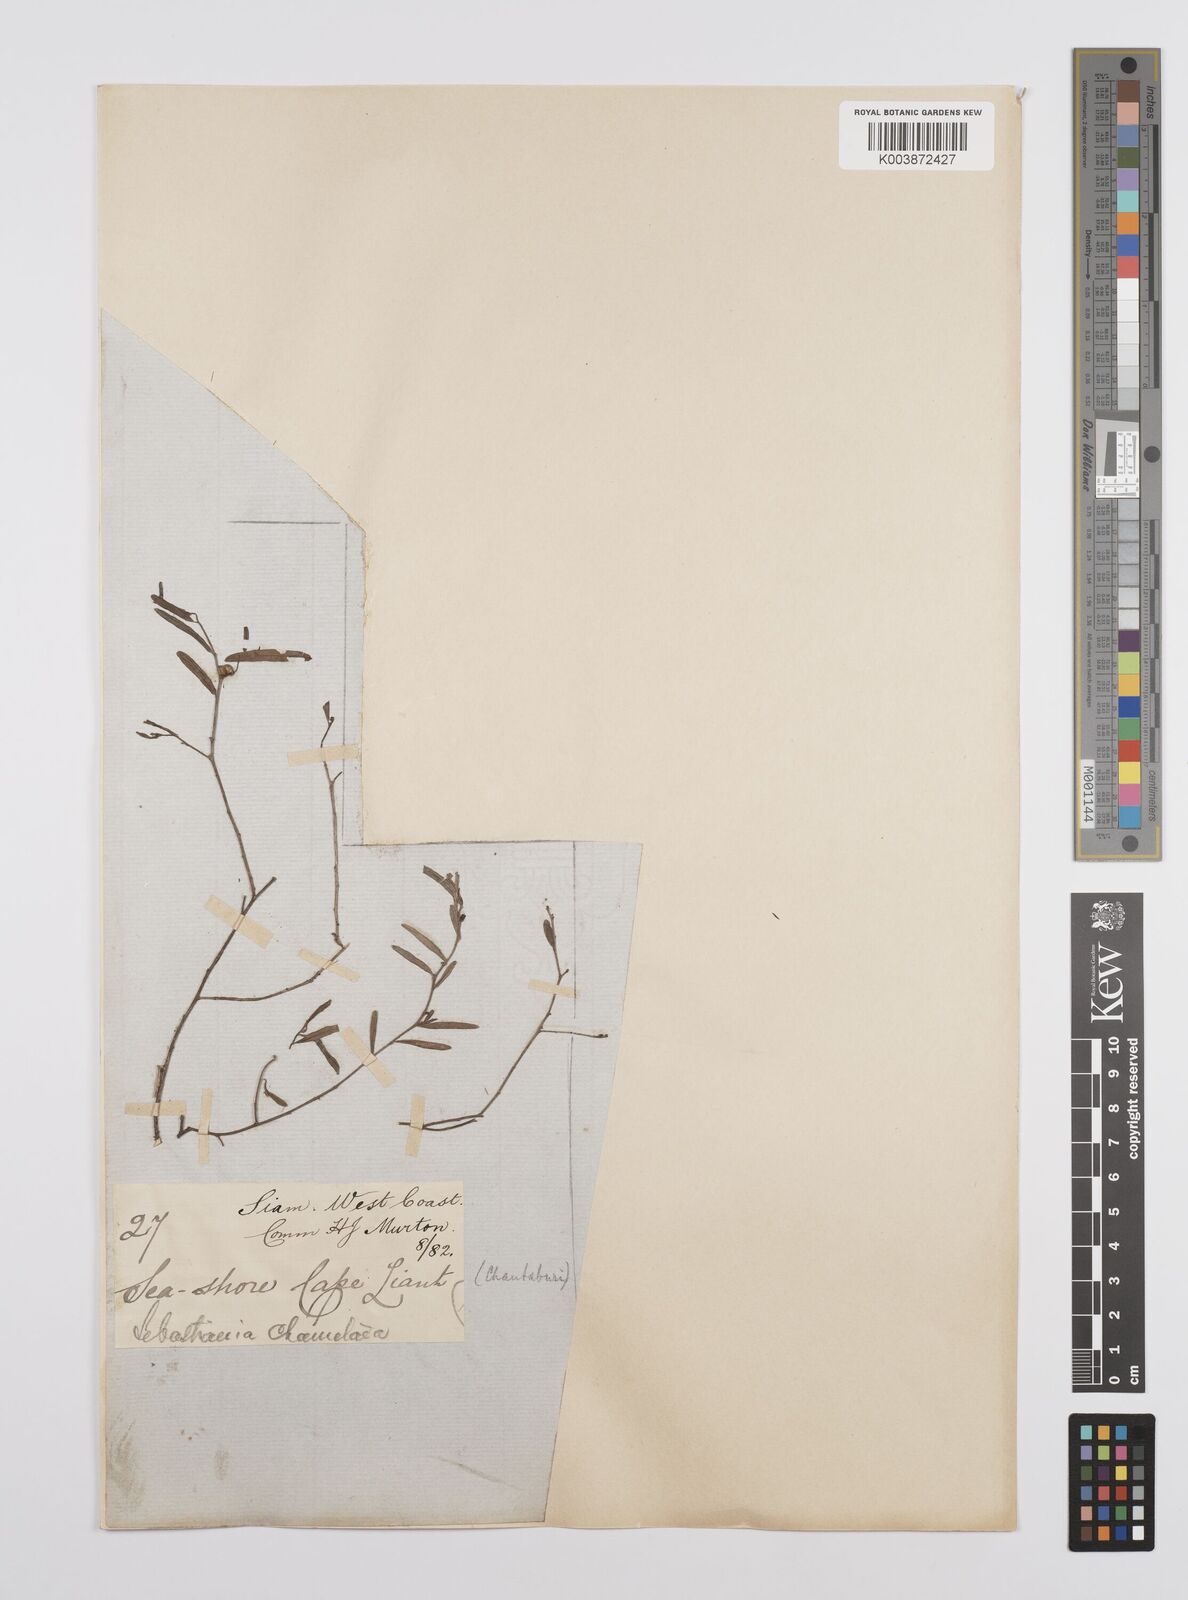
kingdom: Plantae
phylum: Tracheophyta
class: Magnoliopsida
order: Malpighiales
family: Euphorbiaceae
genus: Microstachys
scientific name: Microstachys chamaelea
